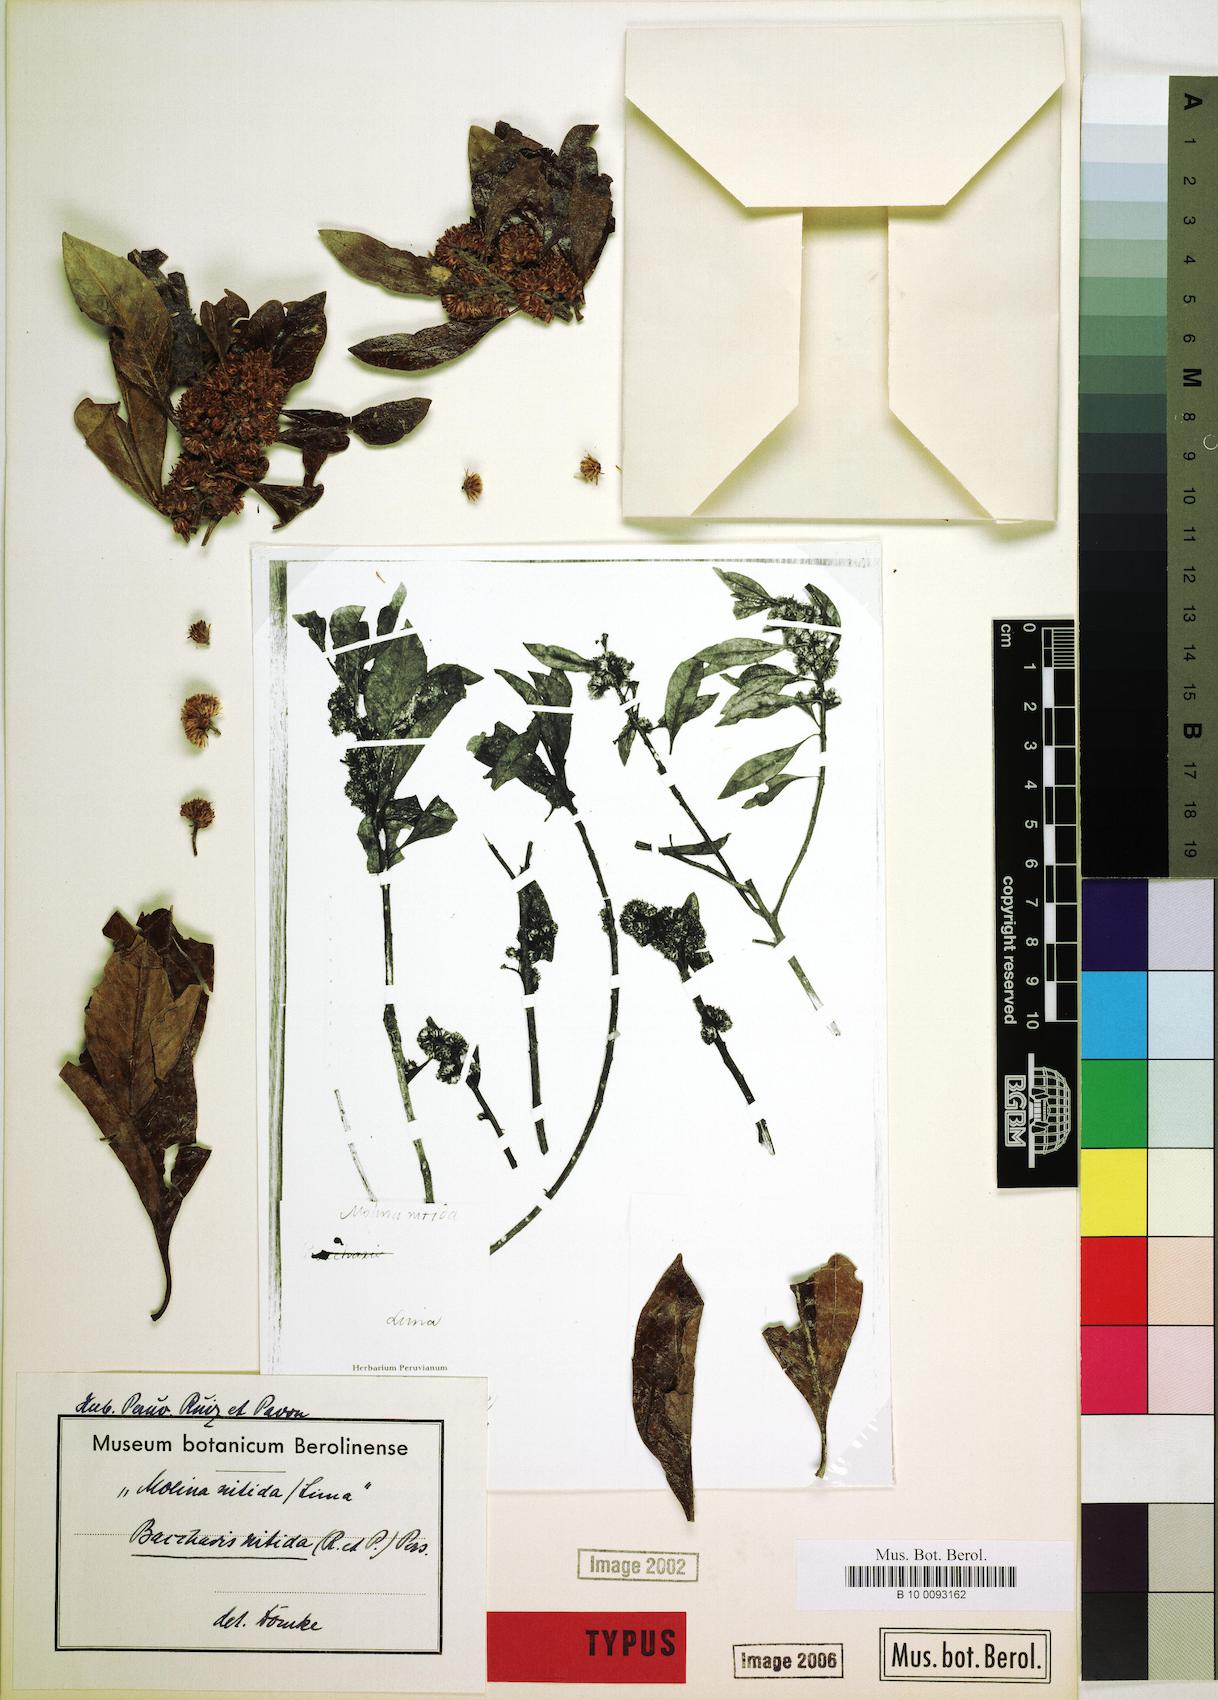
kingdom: Plantae
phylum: Tracheophyta
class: Magnoliopsida
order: Asterales
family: Asteraceae
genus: Baccharis
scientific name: Baccharis nitida
